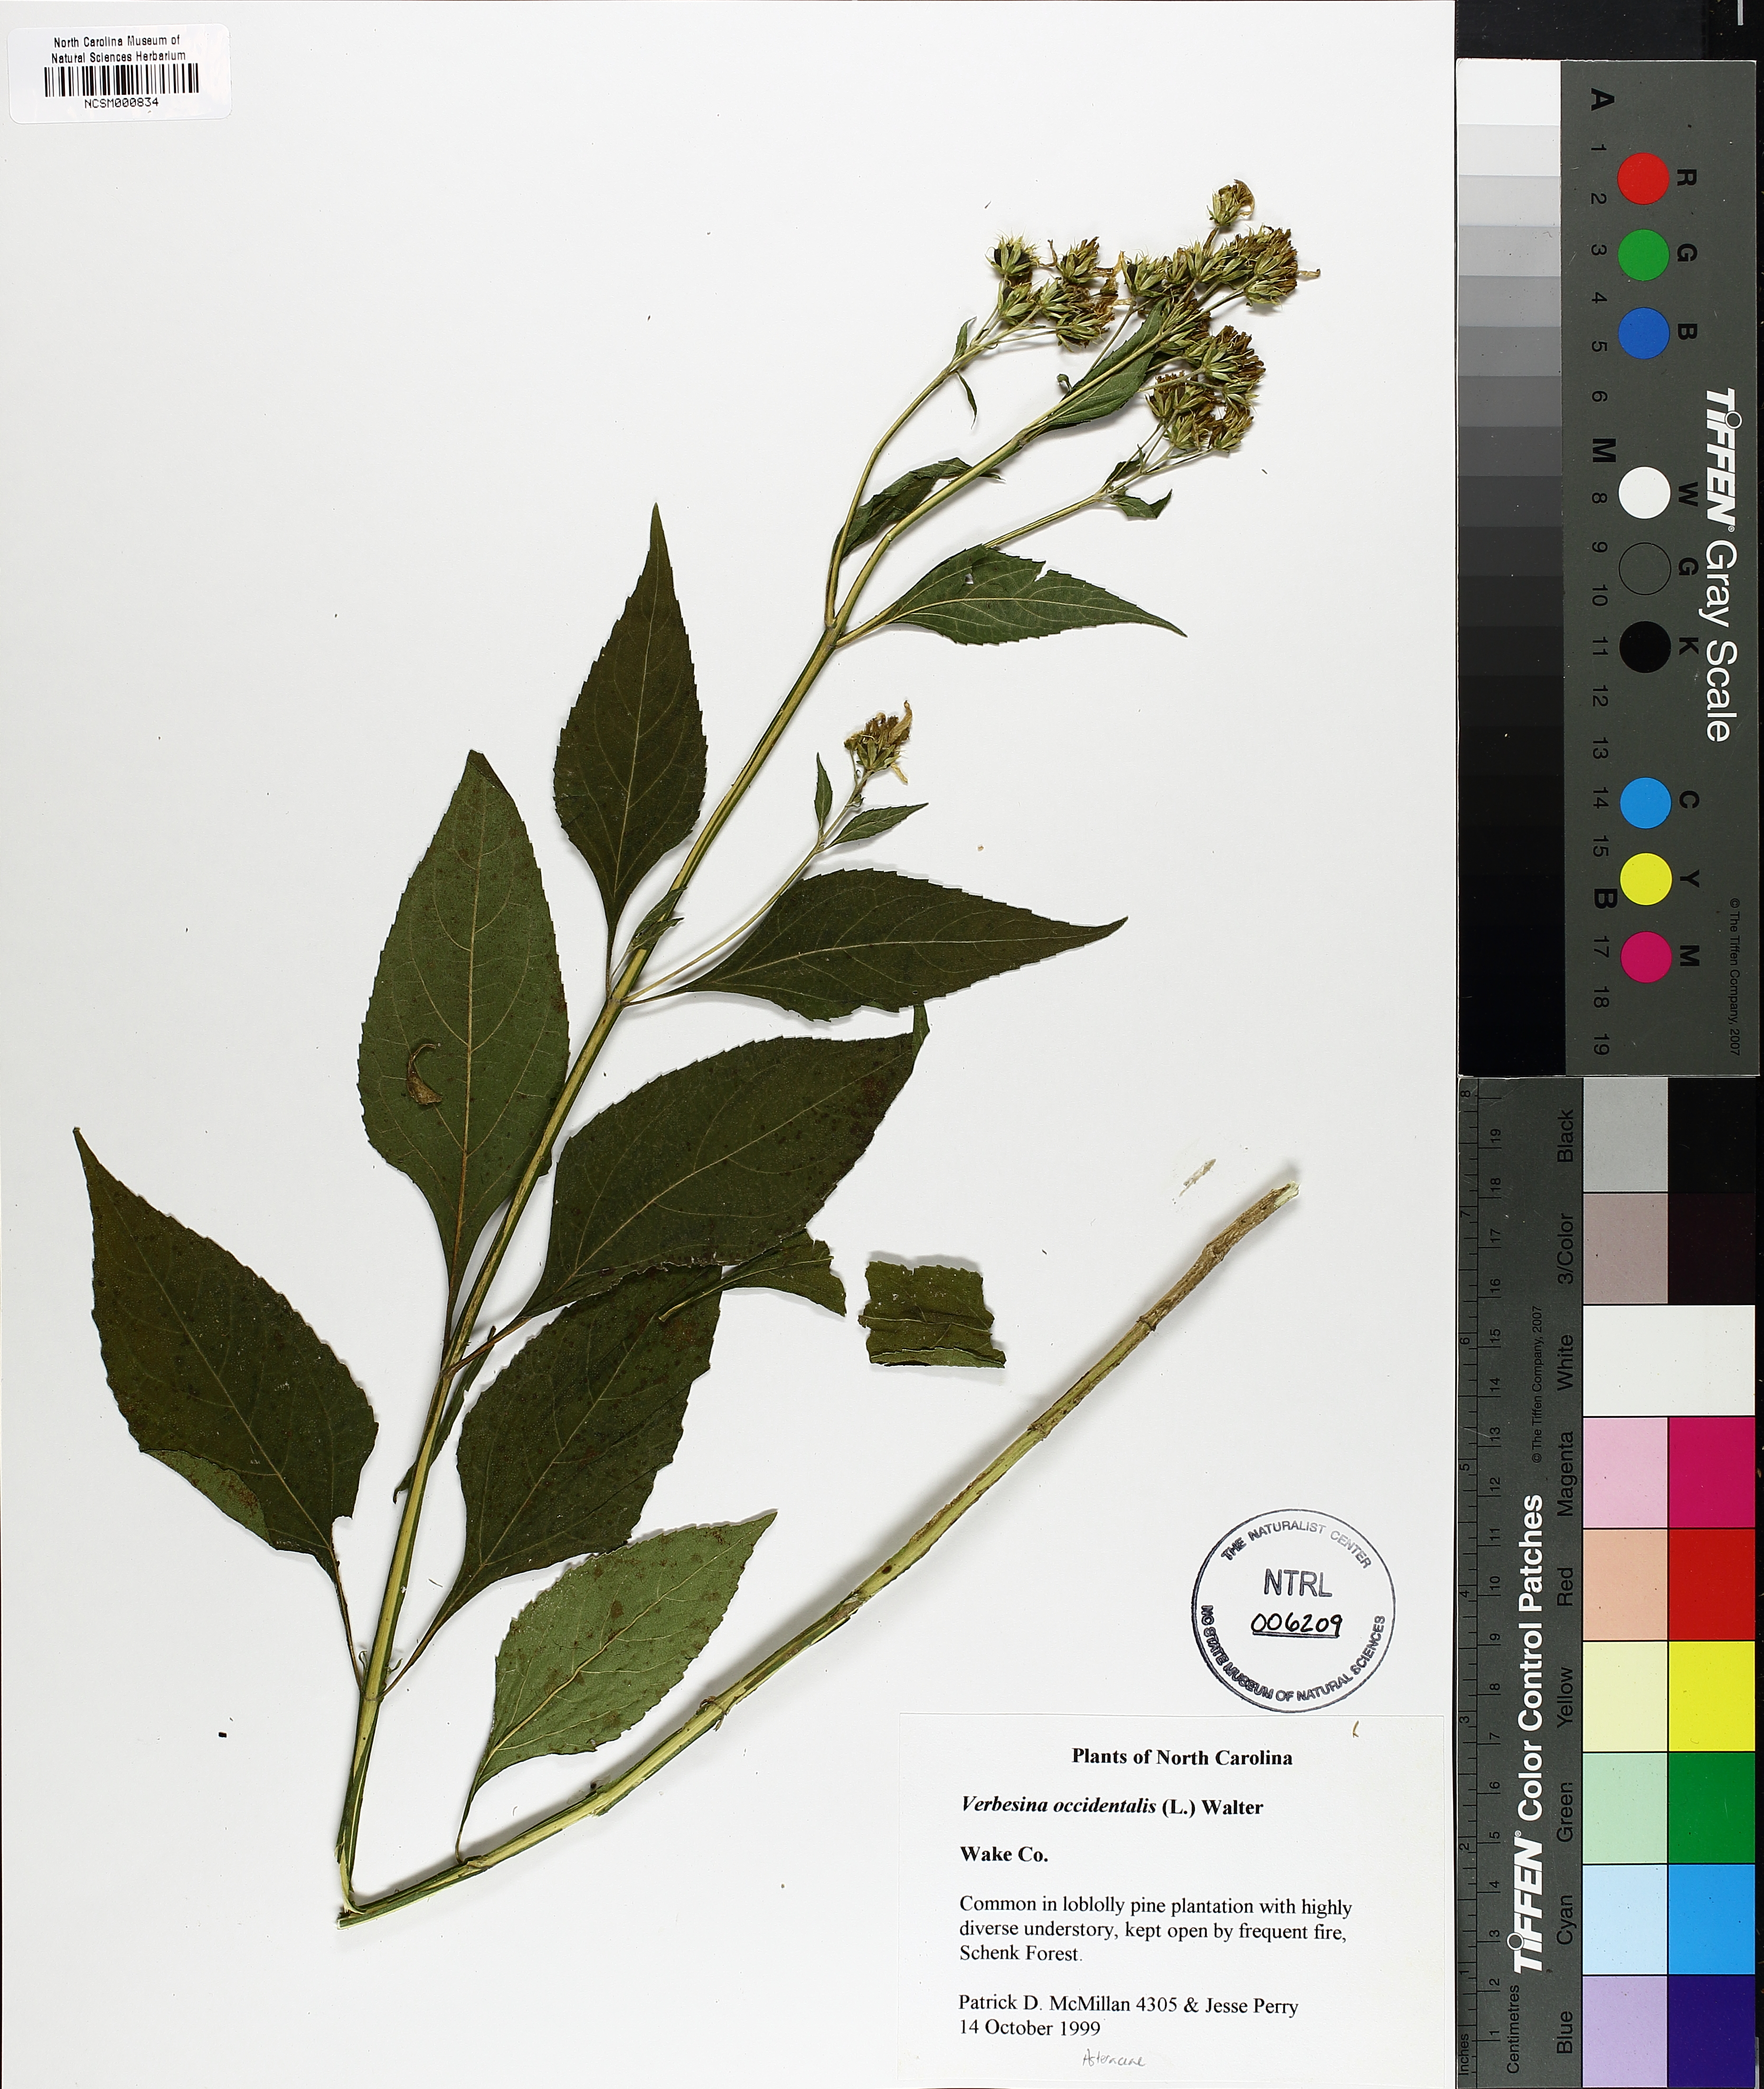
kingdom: Plantae
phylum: Tracheophyta
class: Magnoliopsida
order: Asterales
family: Asteraceae
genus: Verbesina
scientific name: Verbesina occidentalis
